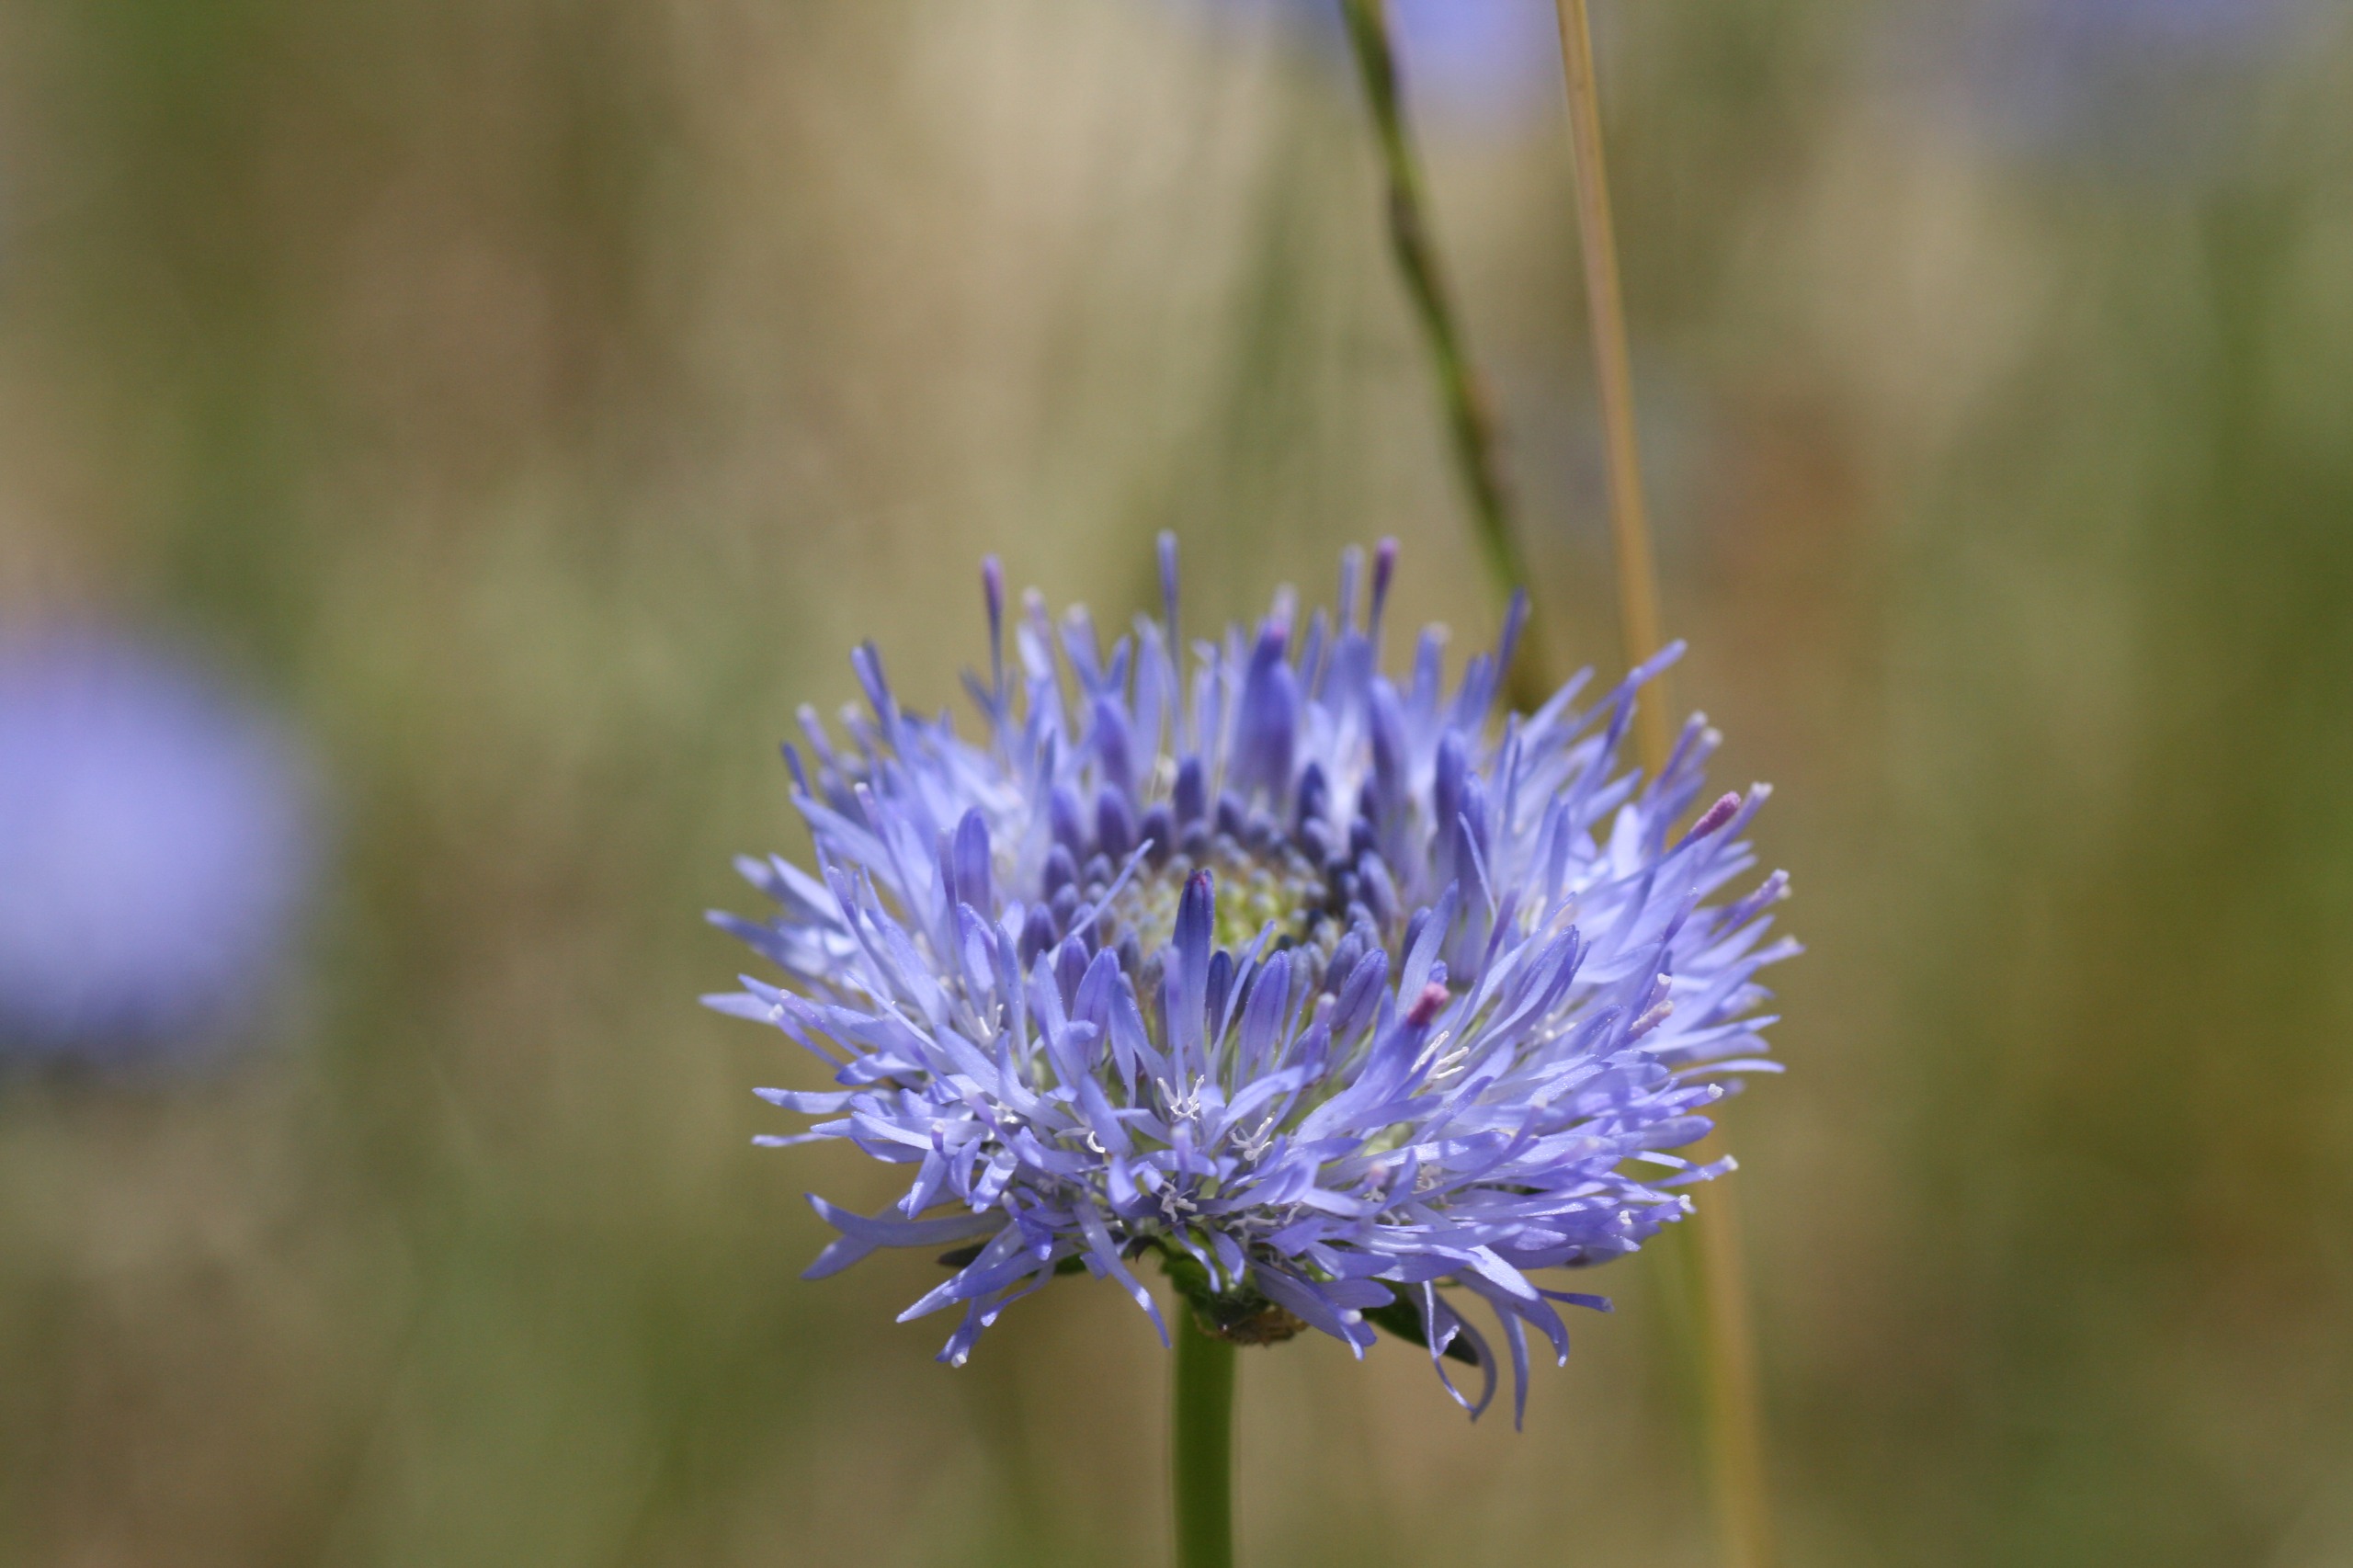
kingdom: Plantae
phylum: Tracheophyta
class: Magnoliopsida
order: Asterales
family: Campanulaceae
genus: Jasione
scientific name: Jasione montana
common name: Blåmunke
